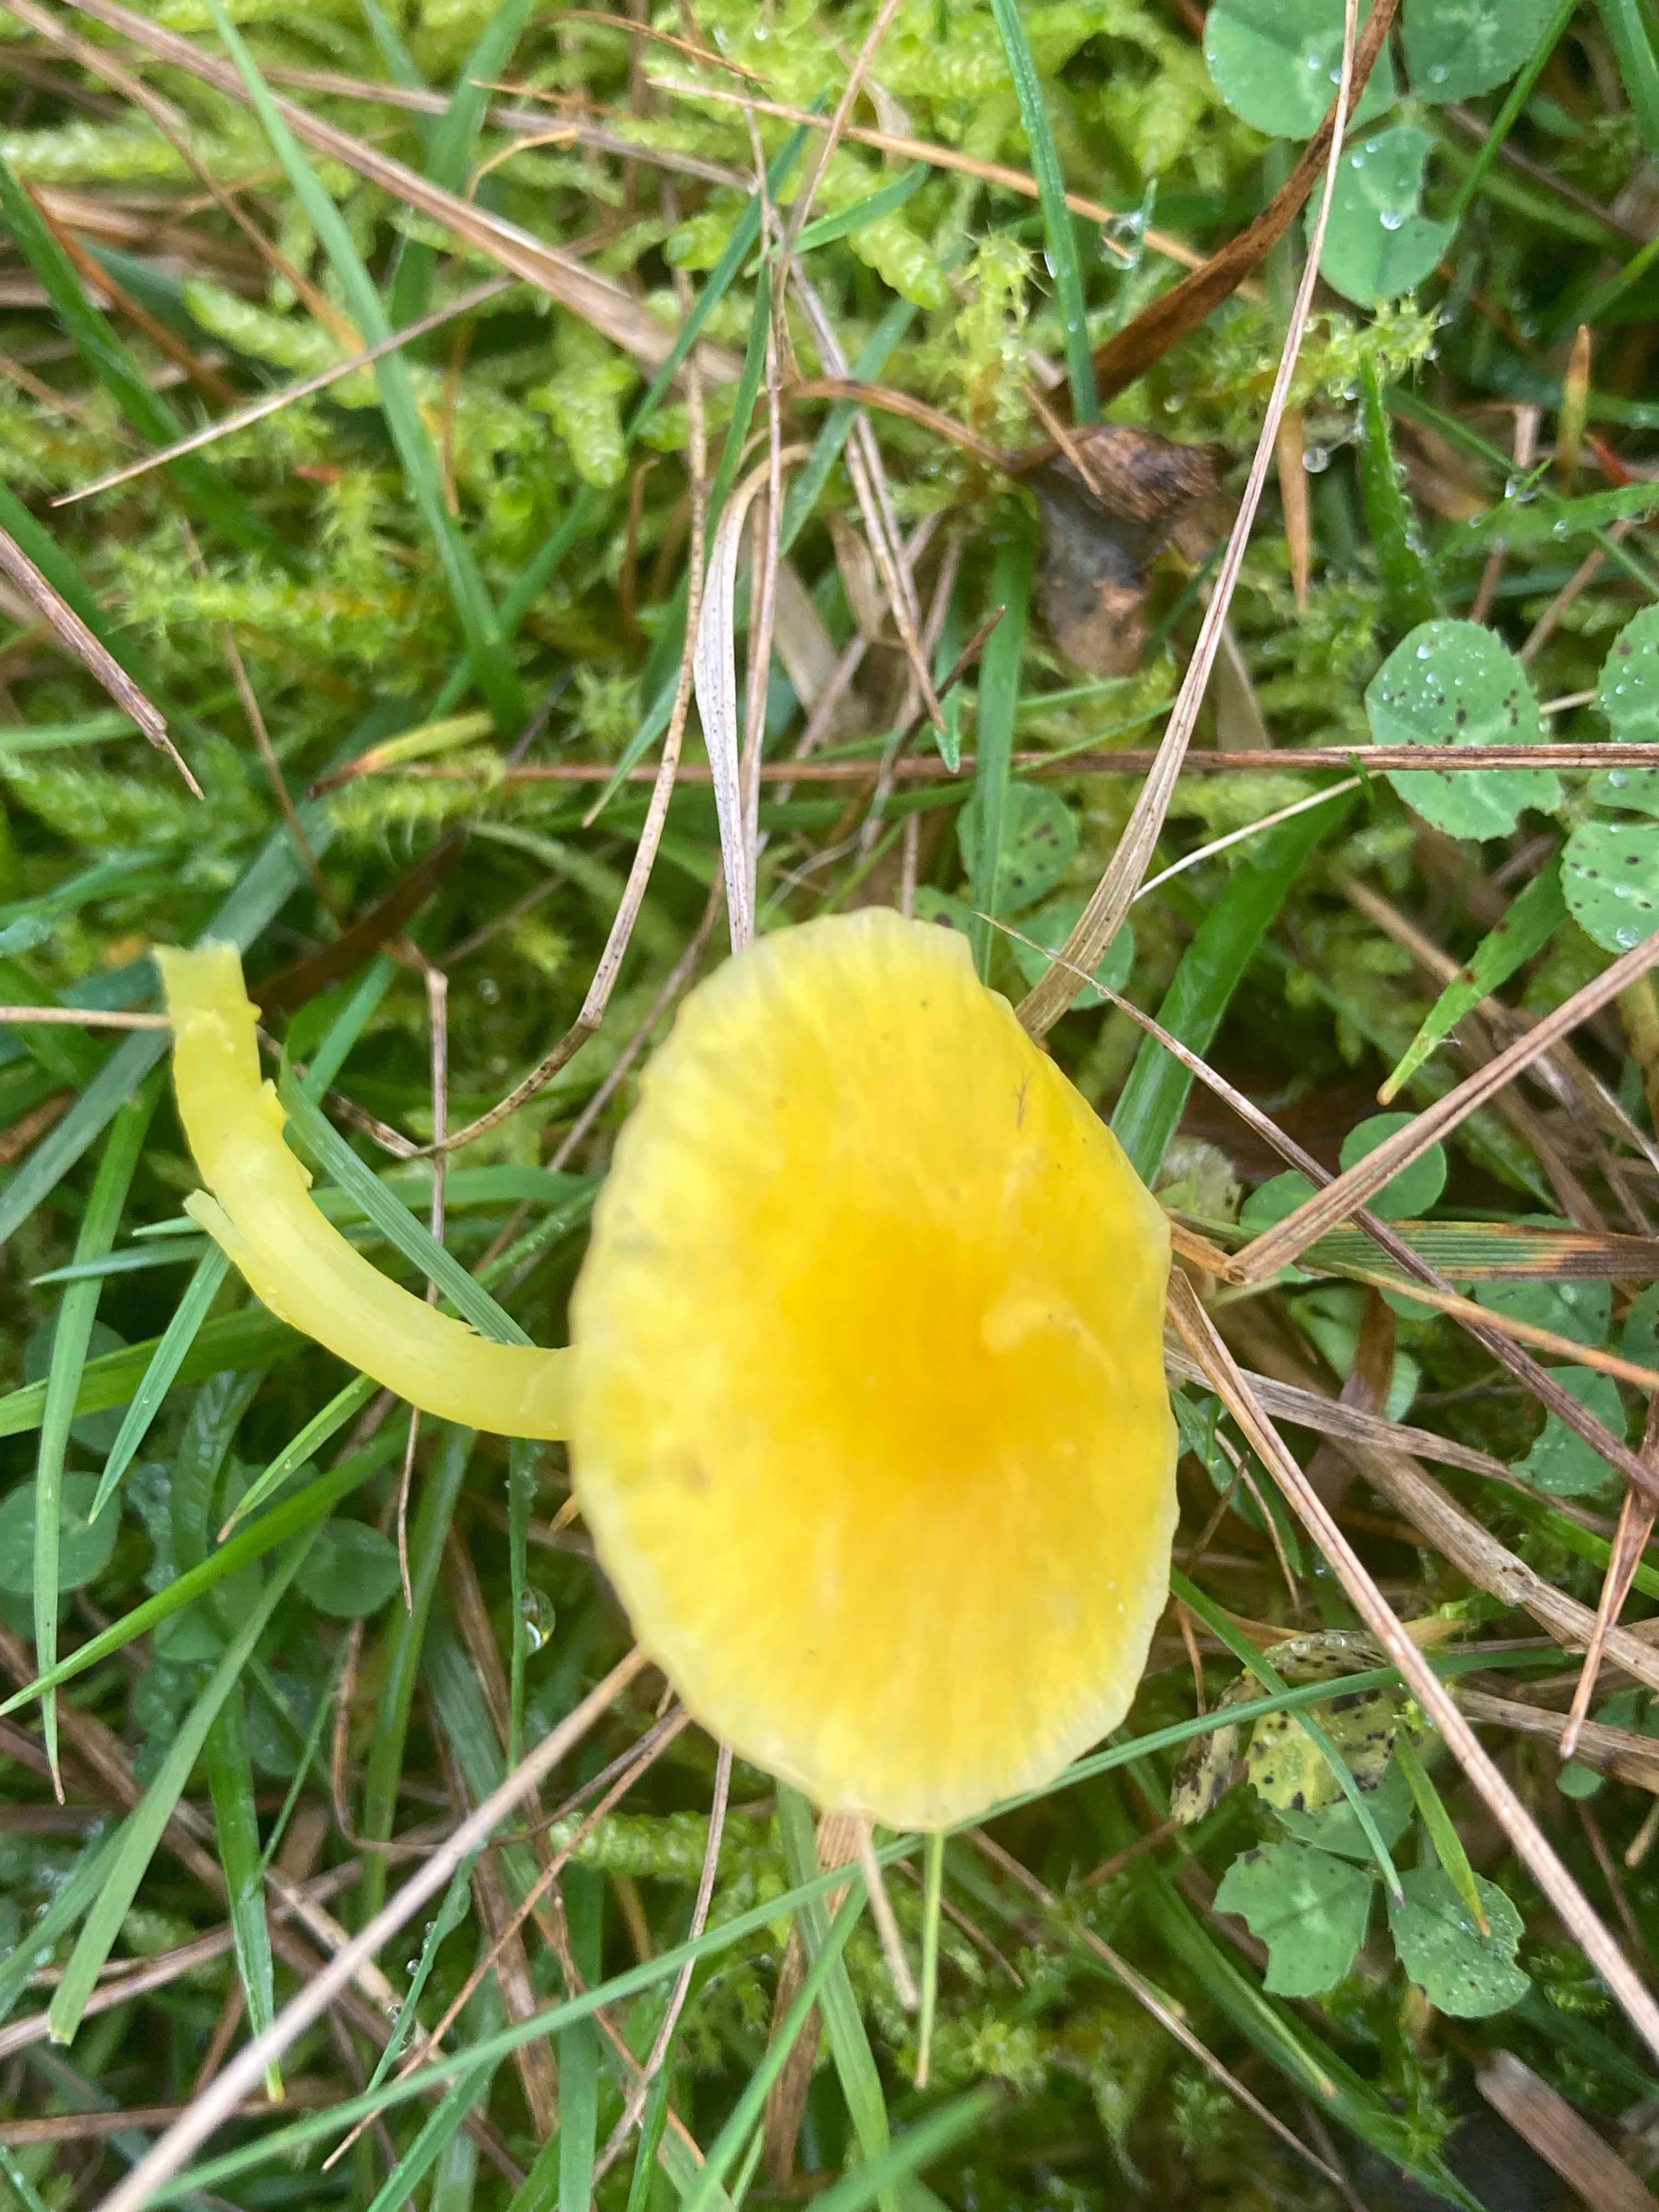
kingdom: Fungi
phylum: Basidiomycota
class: Agaricomycetes
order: Agaricales
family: Hygrophoraceae
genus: Hygrocybe
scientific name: Hygrocybe ceracea
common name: voksgul vokshat
